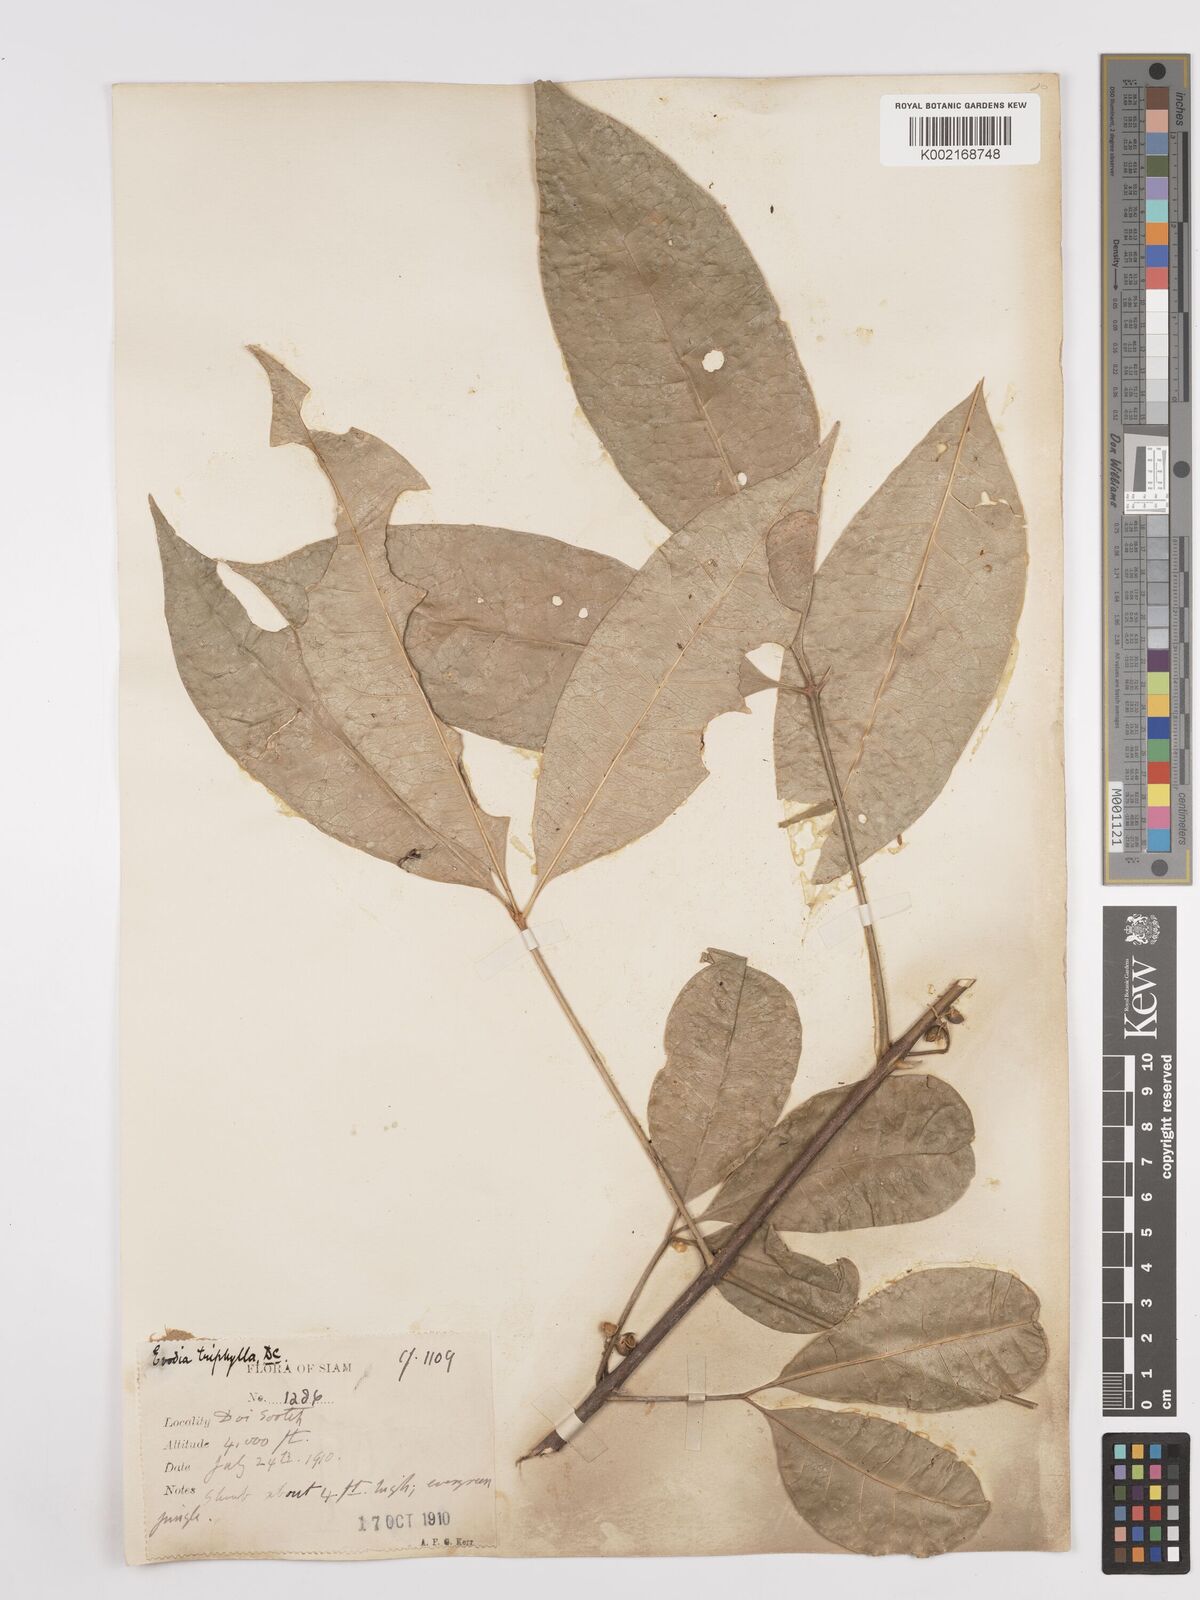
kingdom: Plantae
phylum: Tracheophyta
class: Magnoliopsida
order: Sapindales
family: Rutaceae
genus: Euodia
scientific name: Euodia
